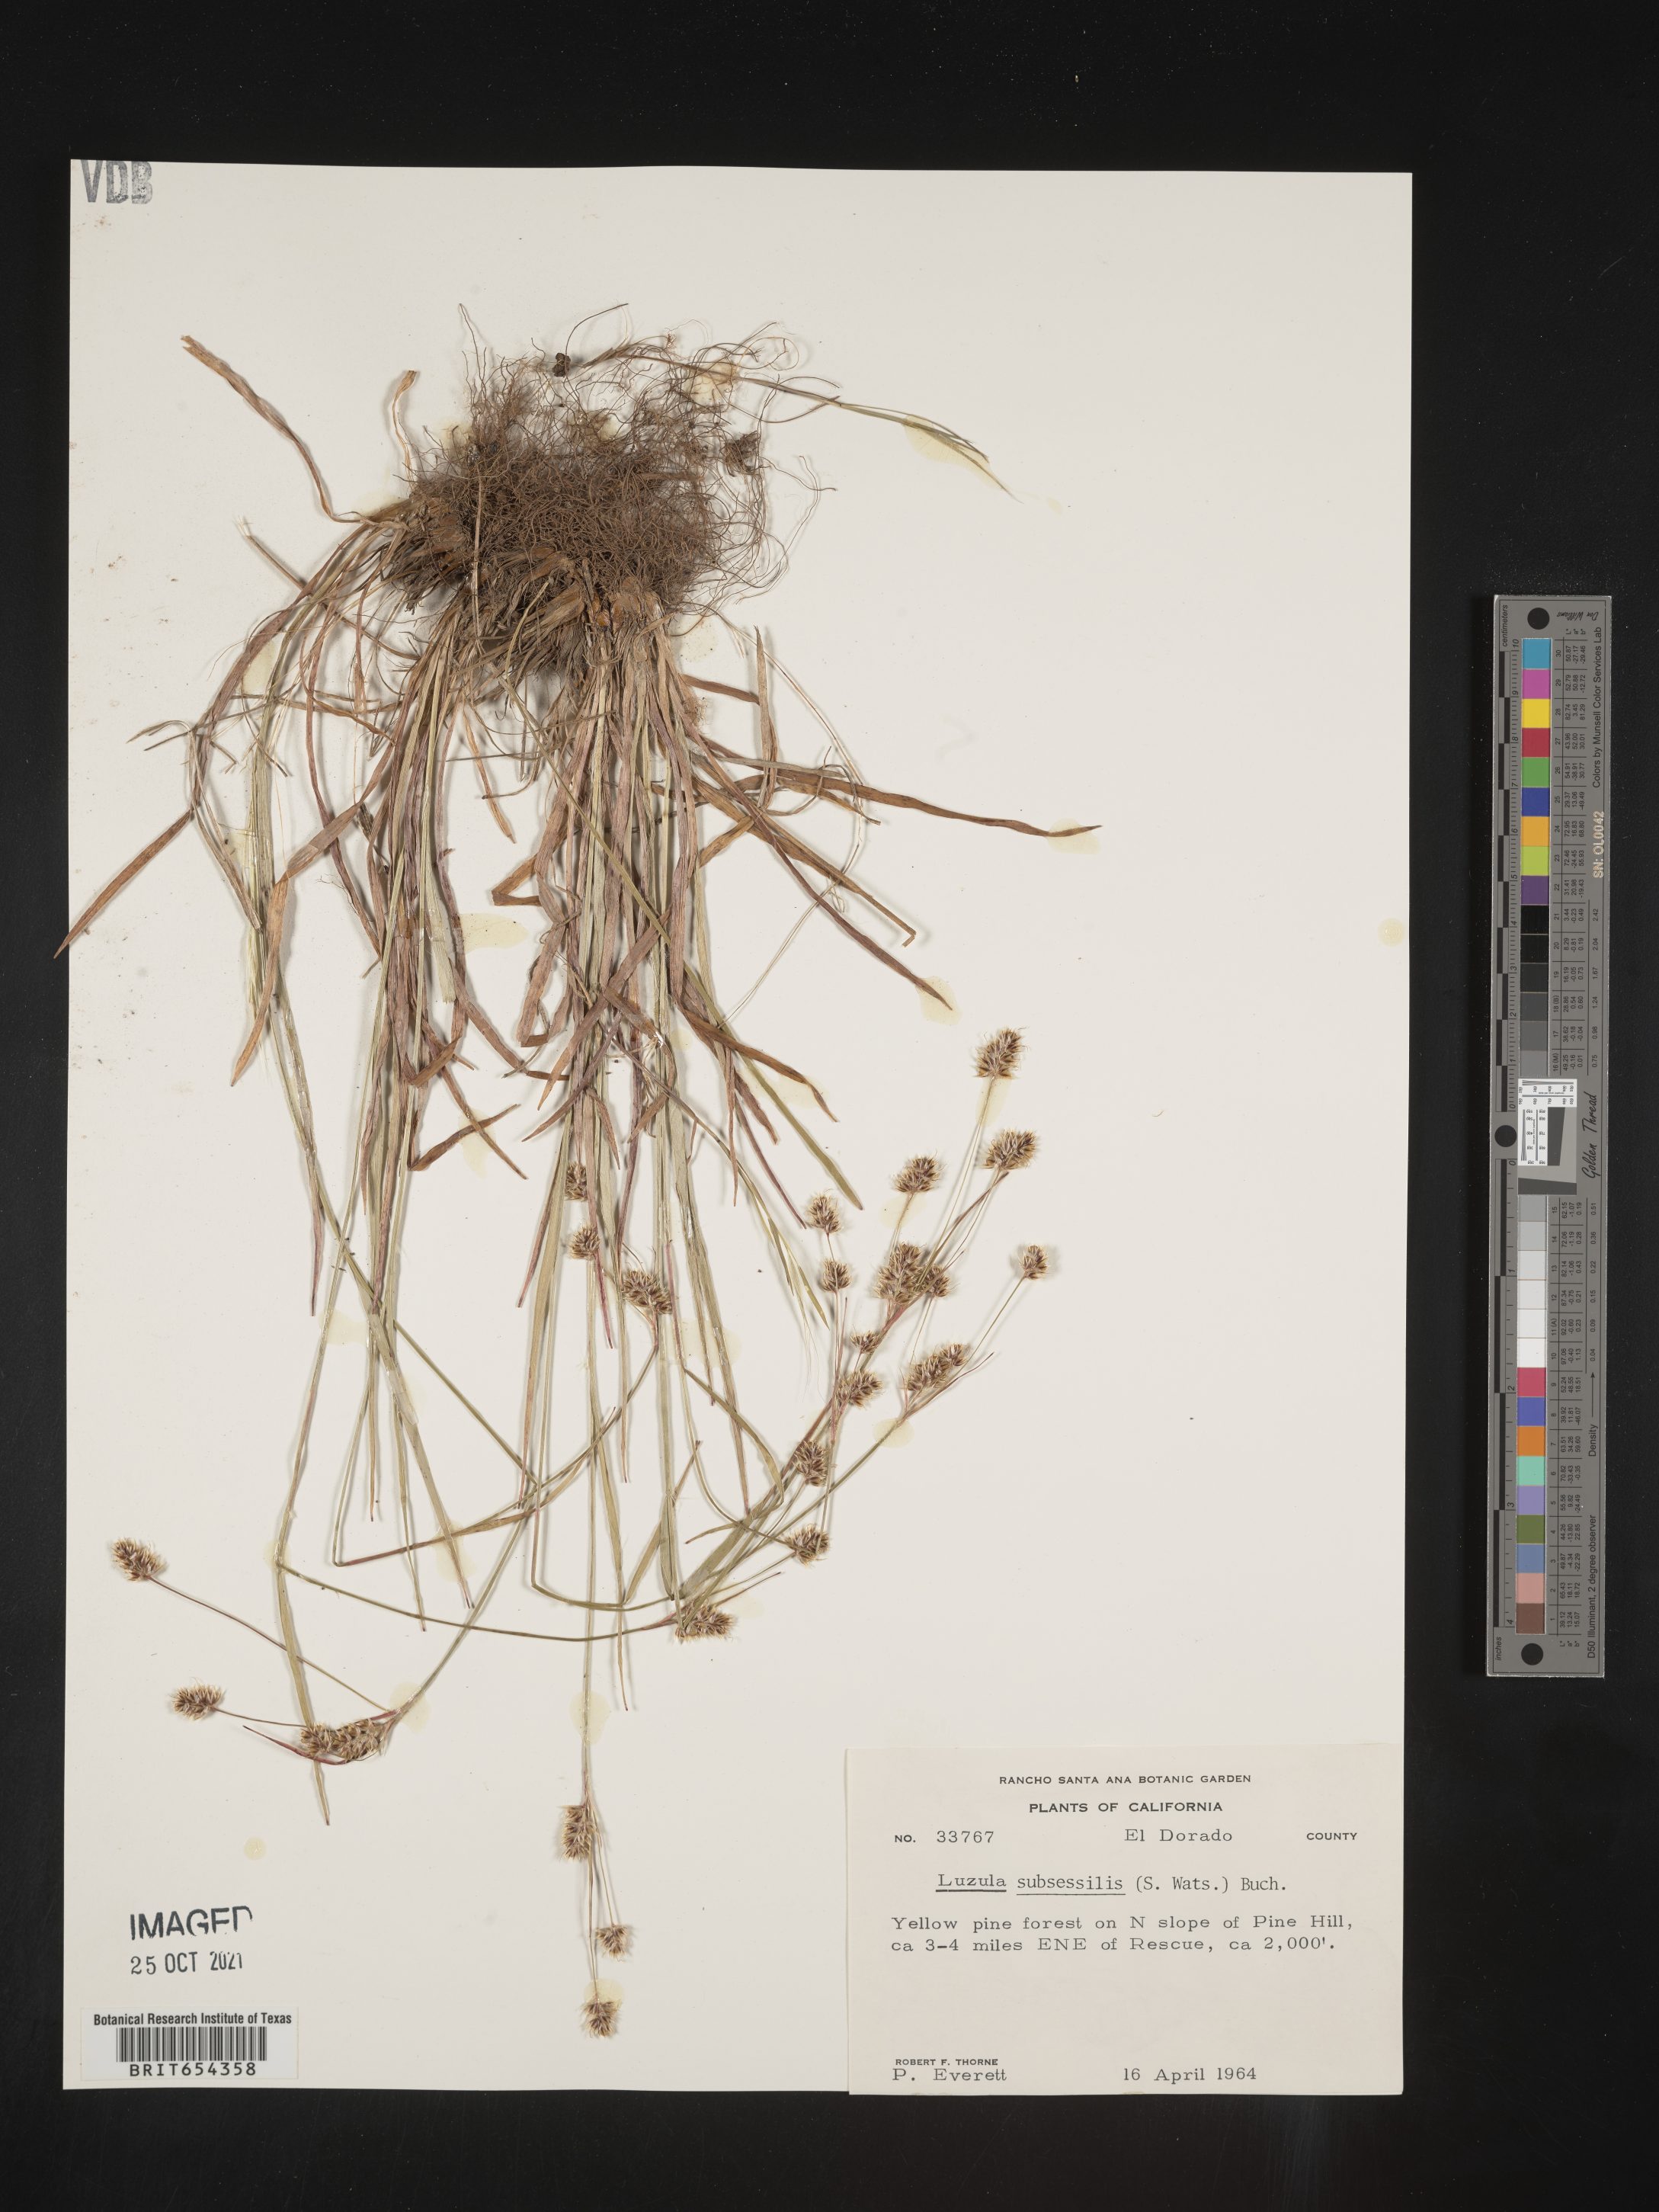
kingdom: Plantae
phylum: Tracheophyta
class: Liliopsida
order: Poales
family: Juncaceae
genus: Luzula
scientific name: Luzula
